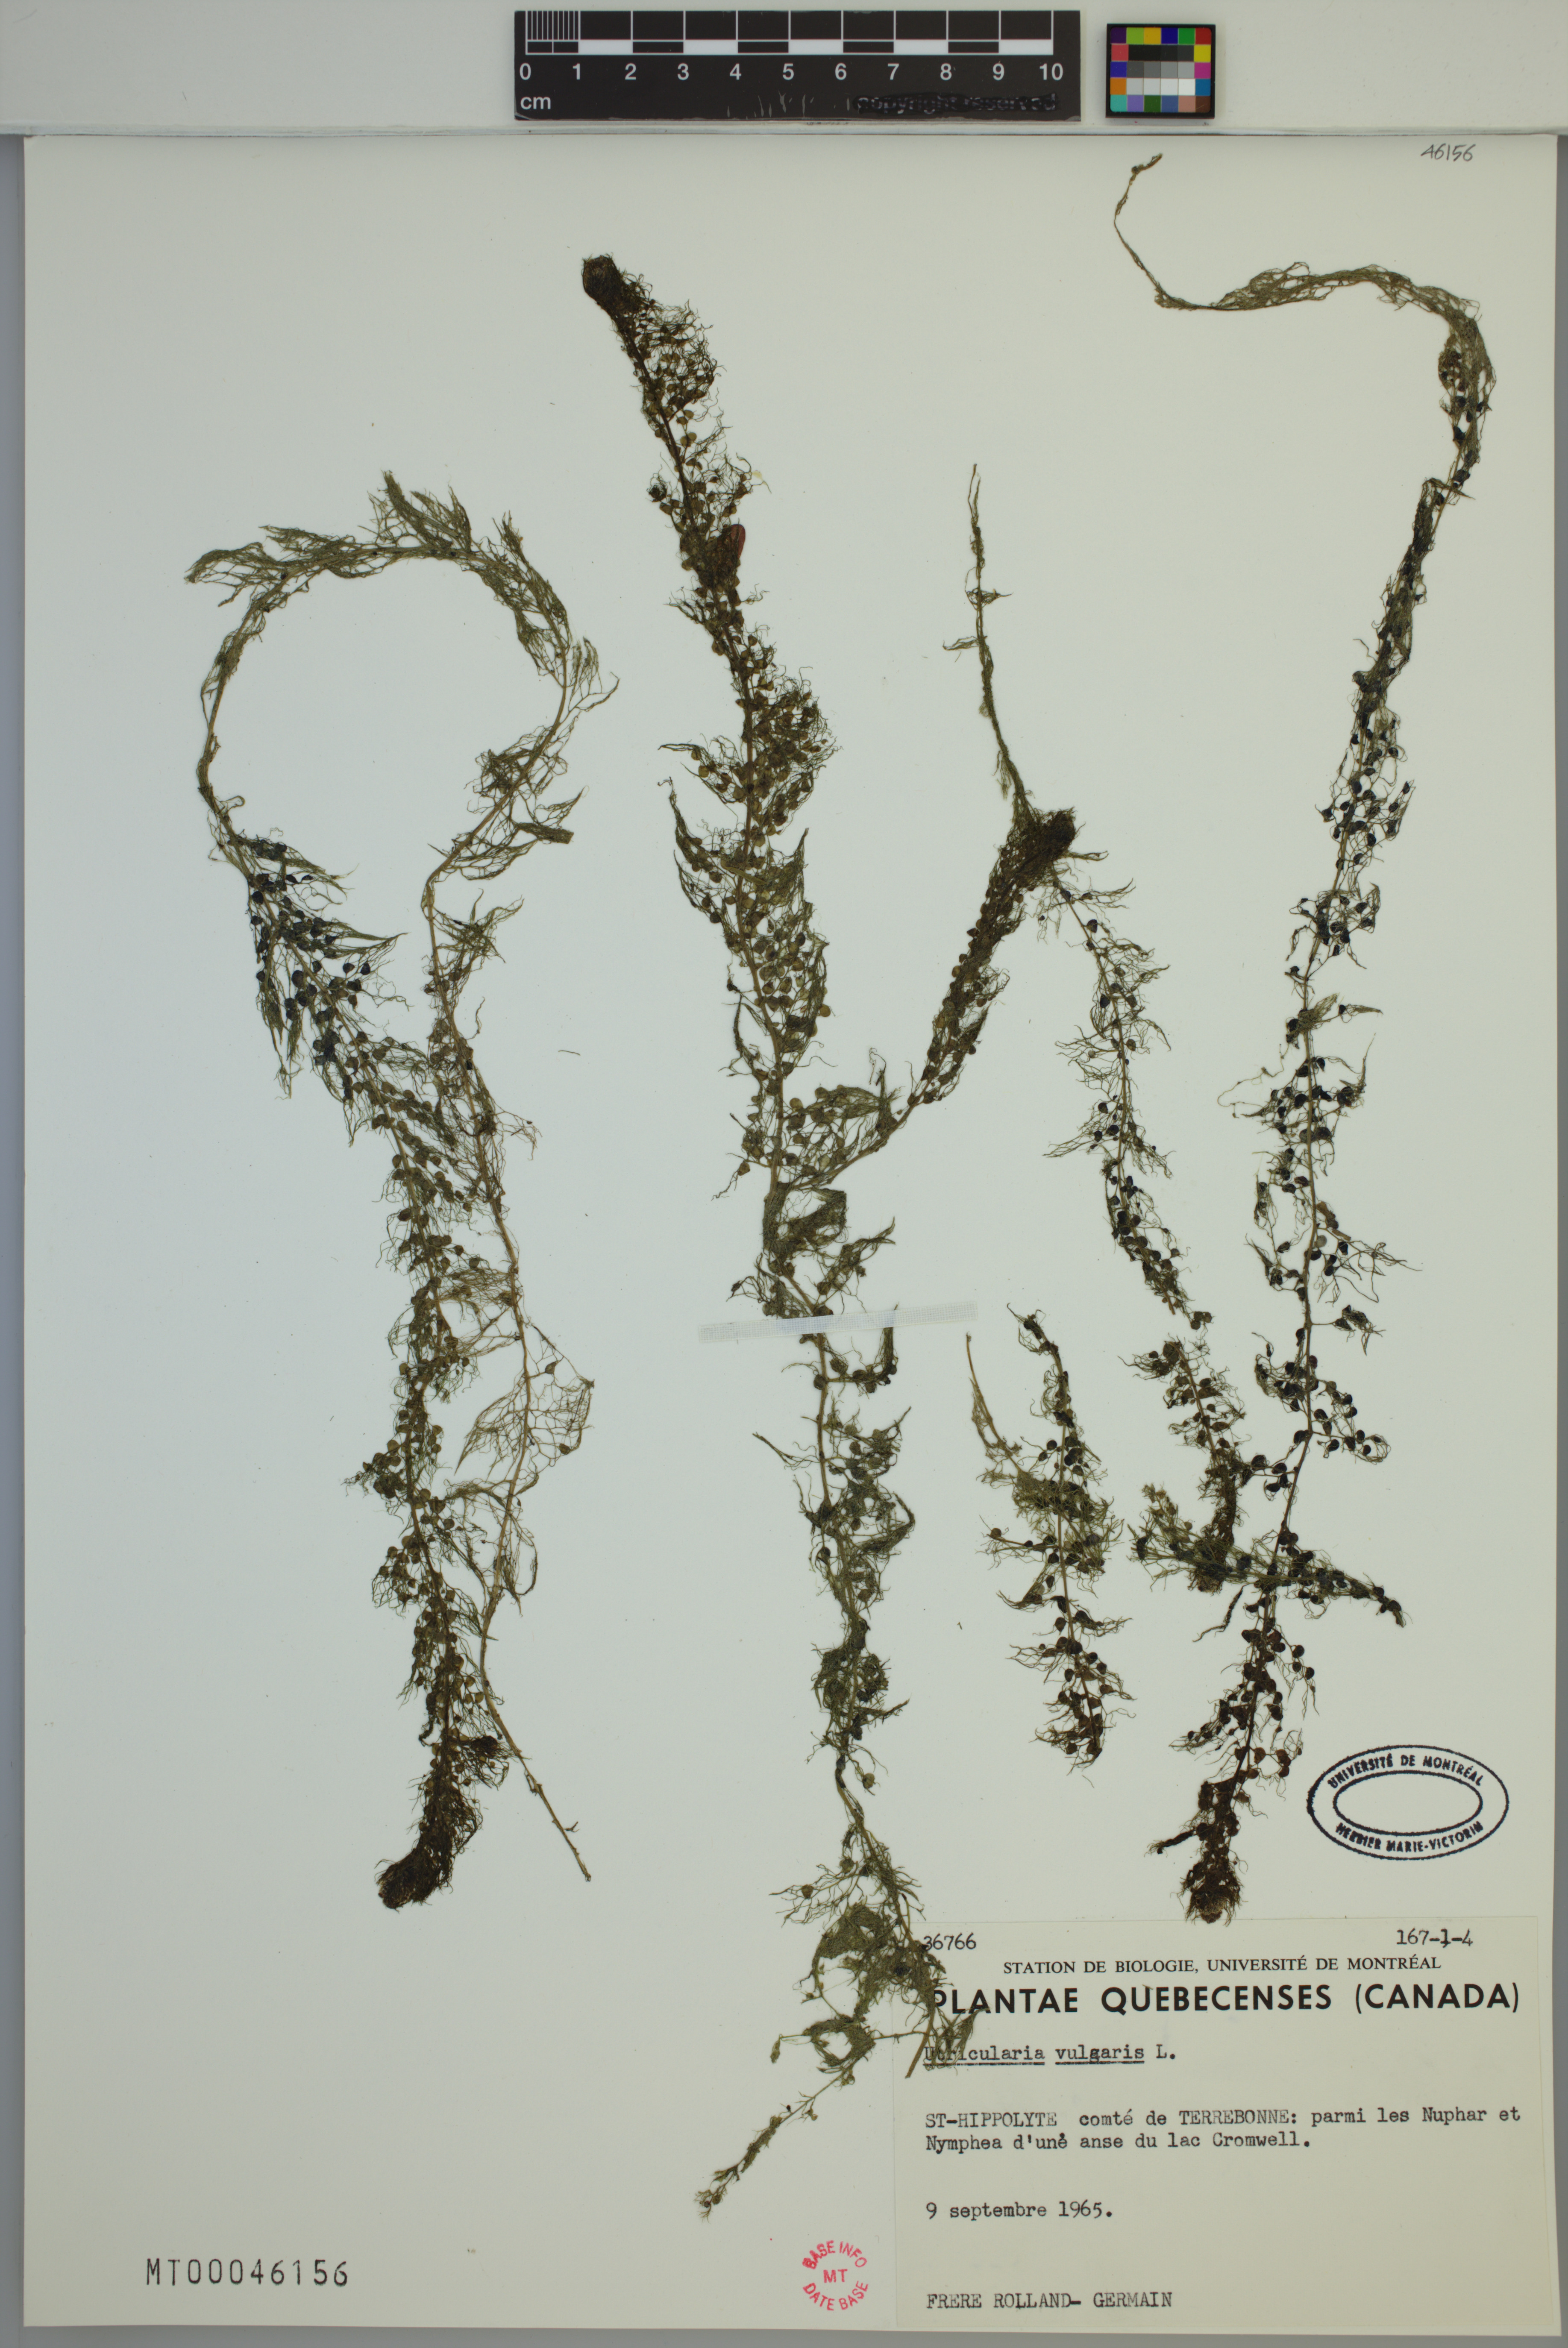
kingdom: Plantae
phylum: Tracheophyta
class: Magnoliopsida
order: Lamiales
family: Lentibulariaceae
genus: Utricularia
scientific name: Utricularia macrorhiza
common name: Common bladderwort
